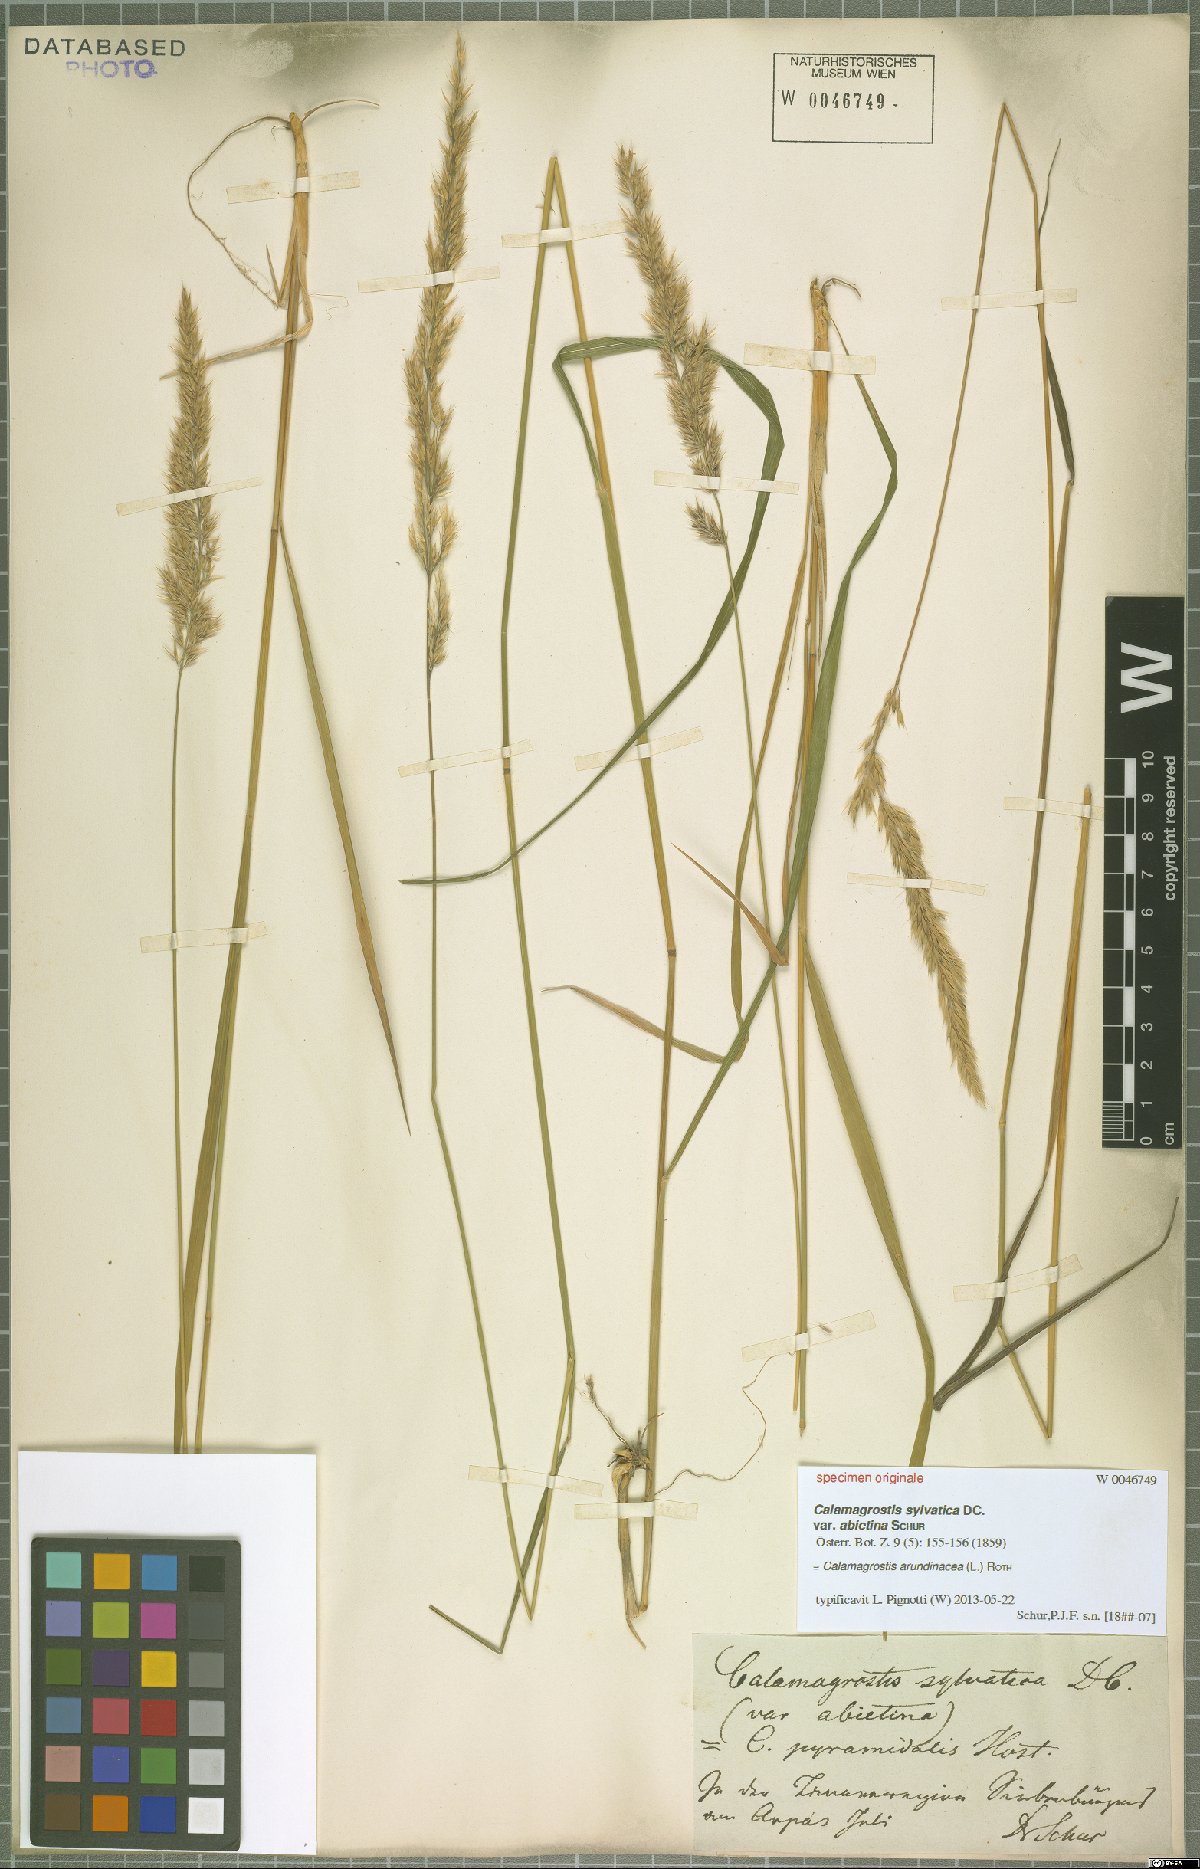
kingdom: Plantae
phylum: Tracheophyta
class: Liliopsida
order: Poales
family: Poaceae
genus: Calamagrostis
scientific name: Calamagrostis arundinacea
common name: Metskastik
